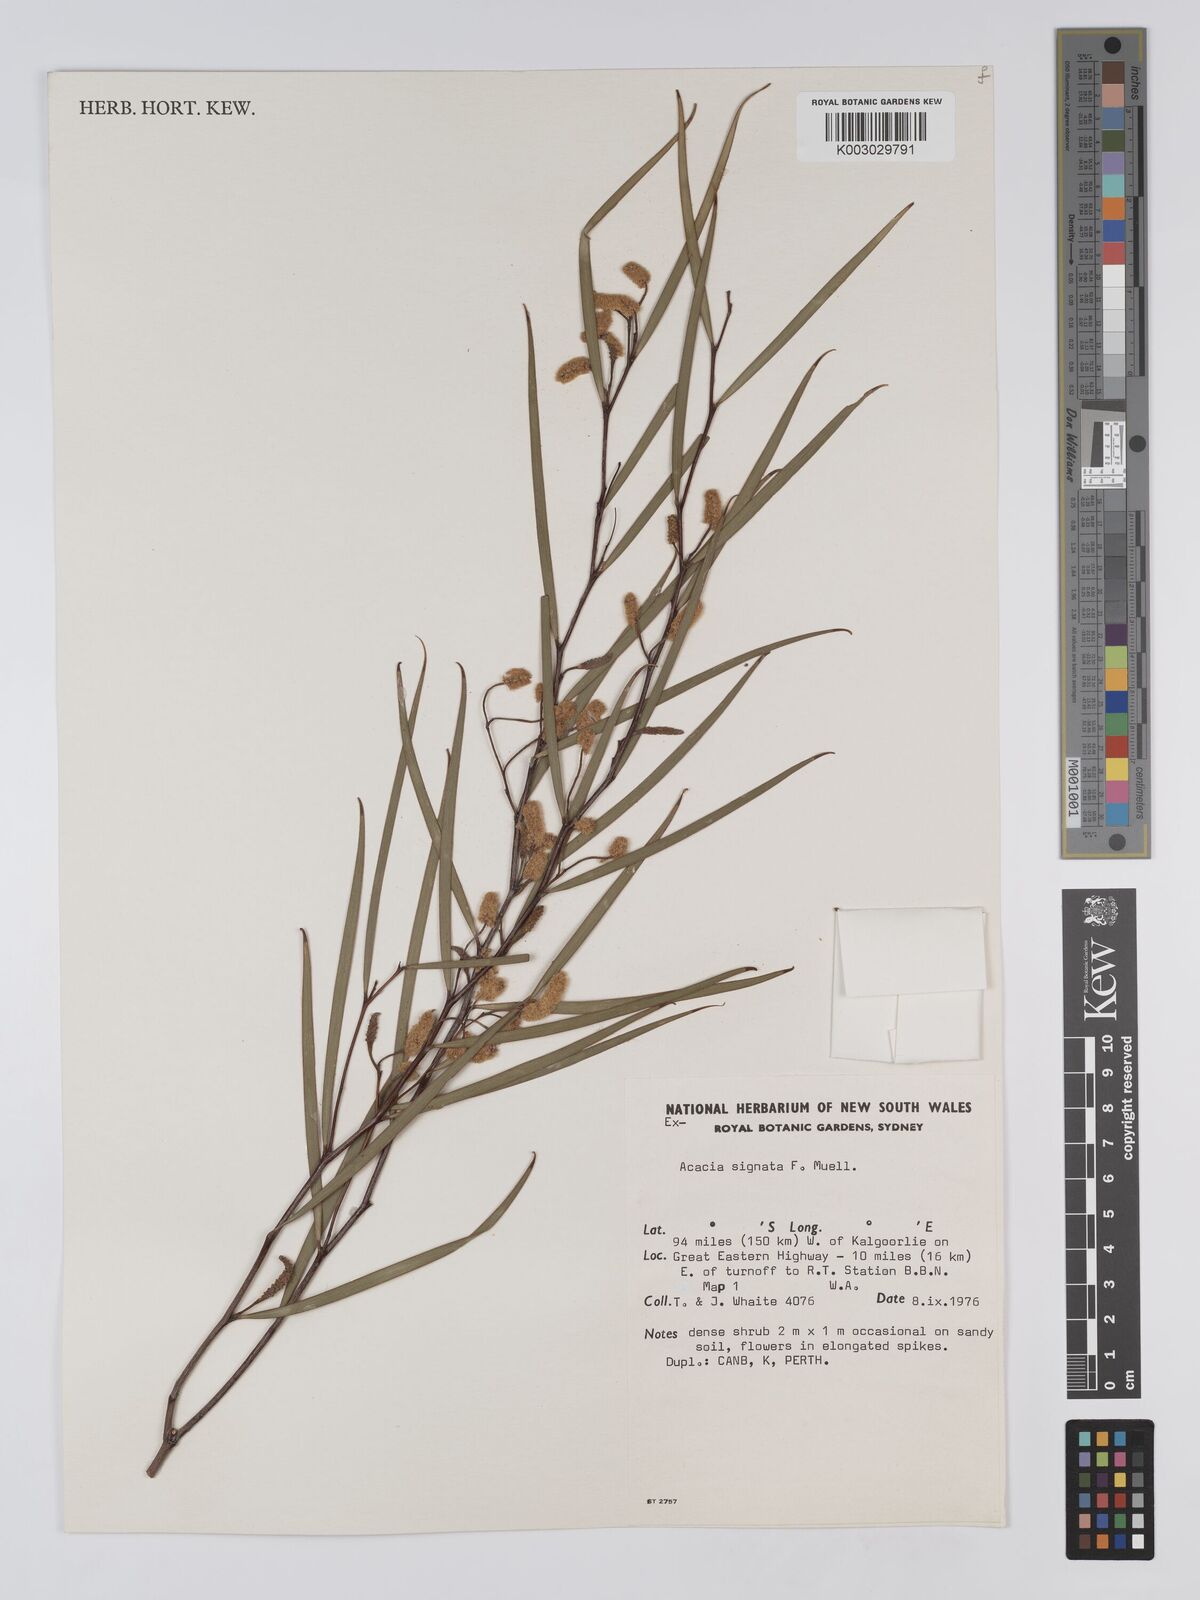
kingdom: Plantae
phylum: Tracheophyta
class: Magnoliopsida
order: Fabales
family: Fabaceae
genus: Acacia
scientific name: Acacia signata
